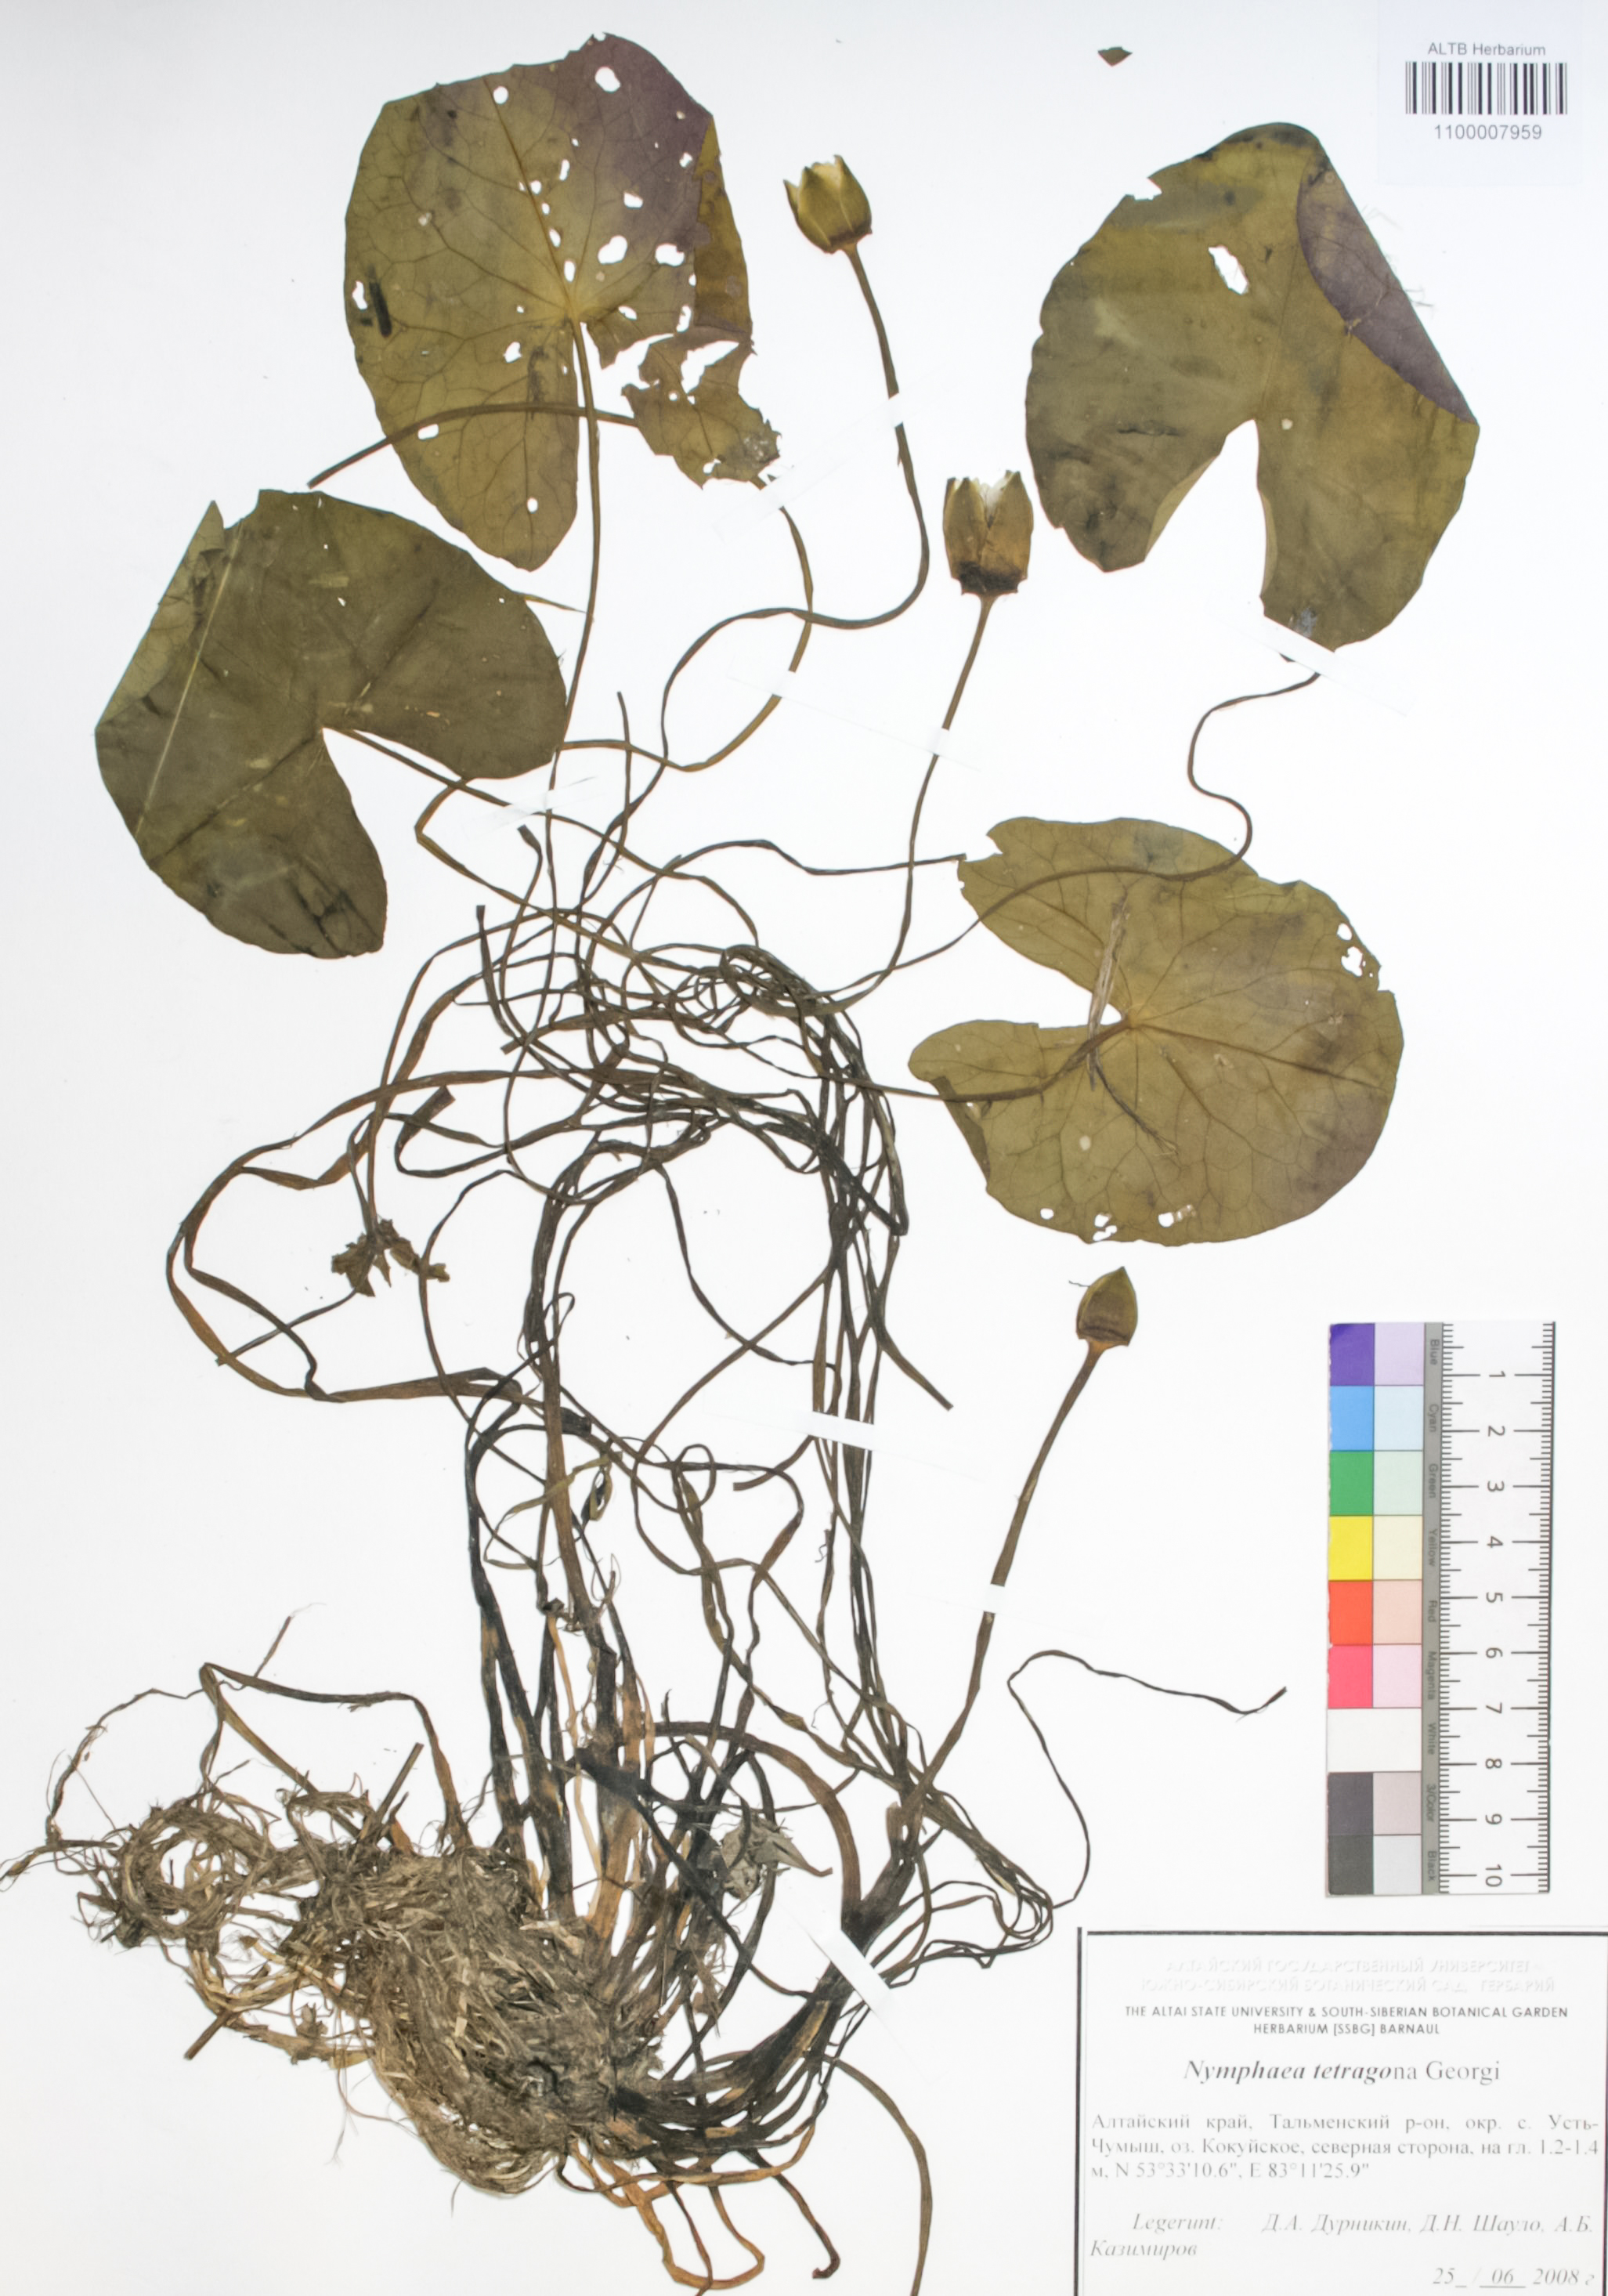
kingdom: Plantae
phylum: Tracheophyta
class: Magnoliopsida
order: Nymphaeales
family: Nymphaeaceae
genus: Nymphaea
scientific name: Nymphaea tetragona
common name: Pygmy water-lily
